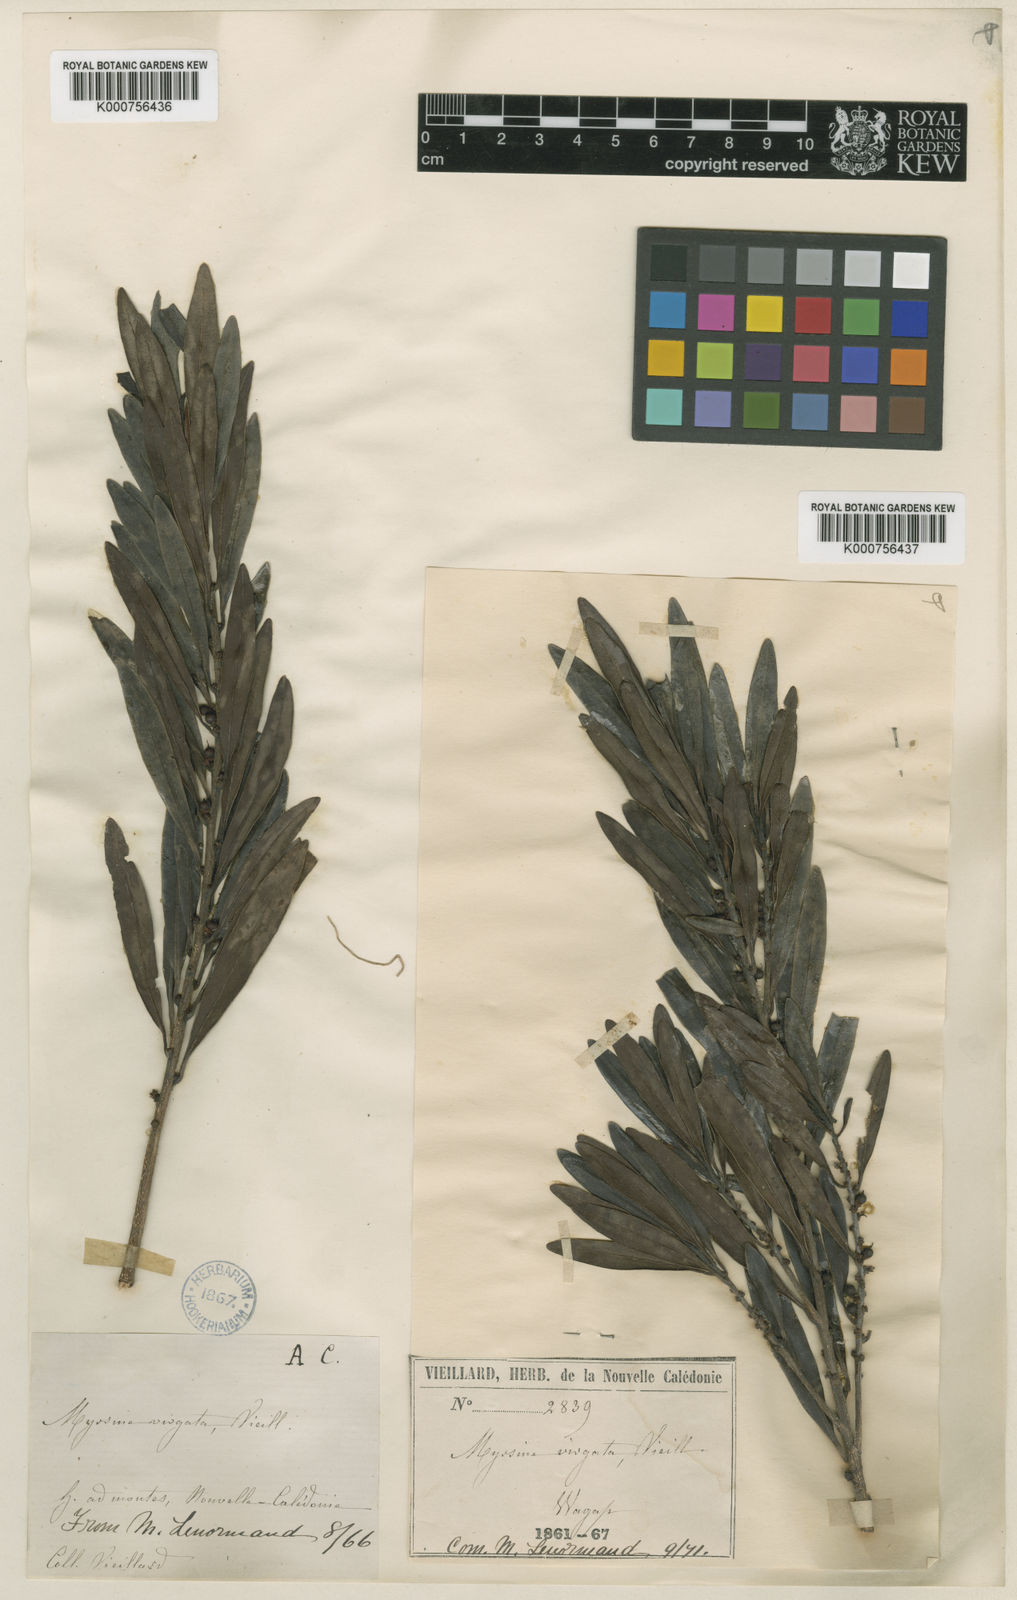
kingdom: Plantae
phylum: Tracheophyta
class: Magnoliopsida
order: Ericales
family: Primulaceae
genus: Myrsine
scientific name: Myrsine
